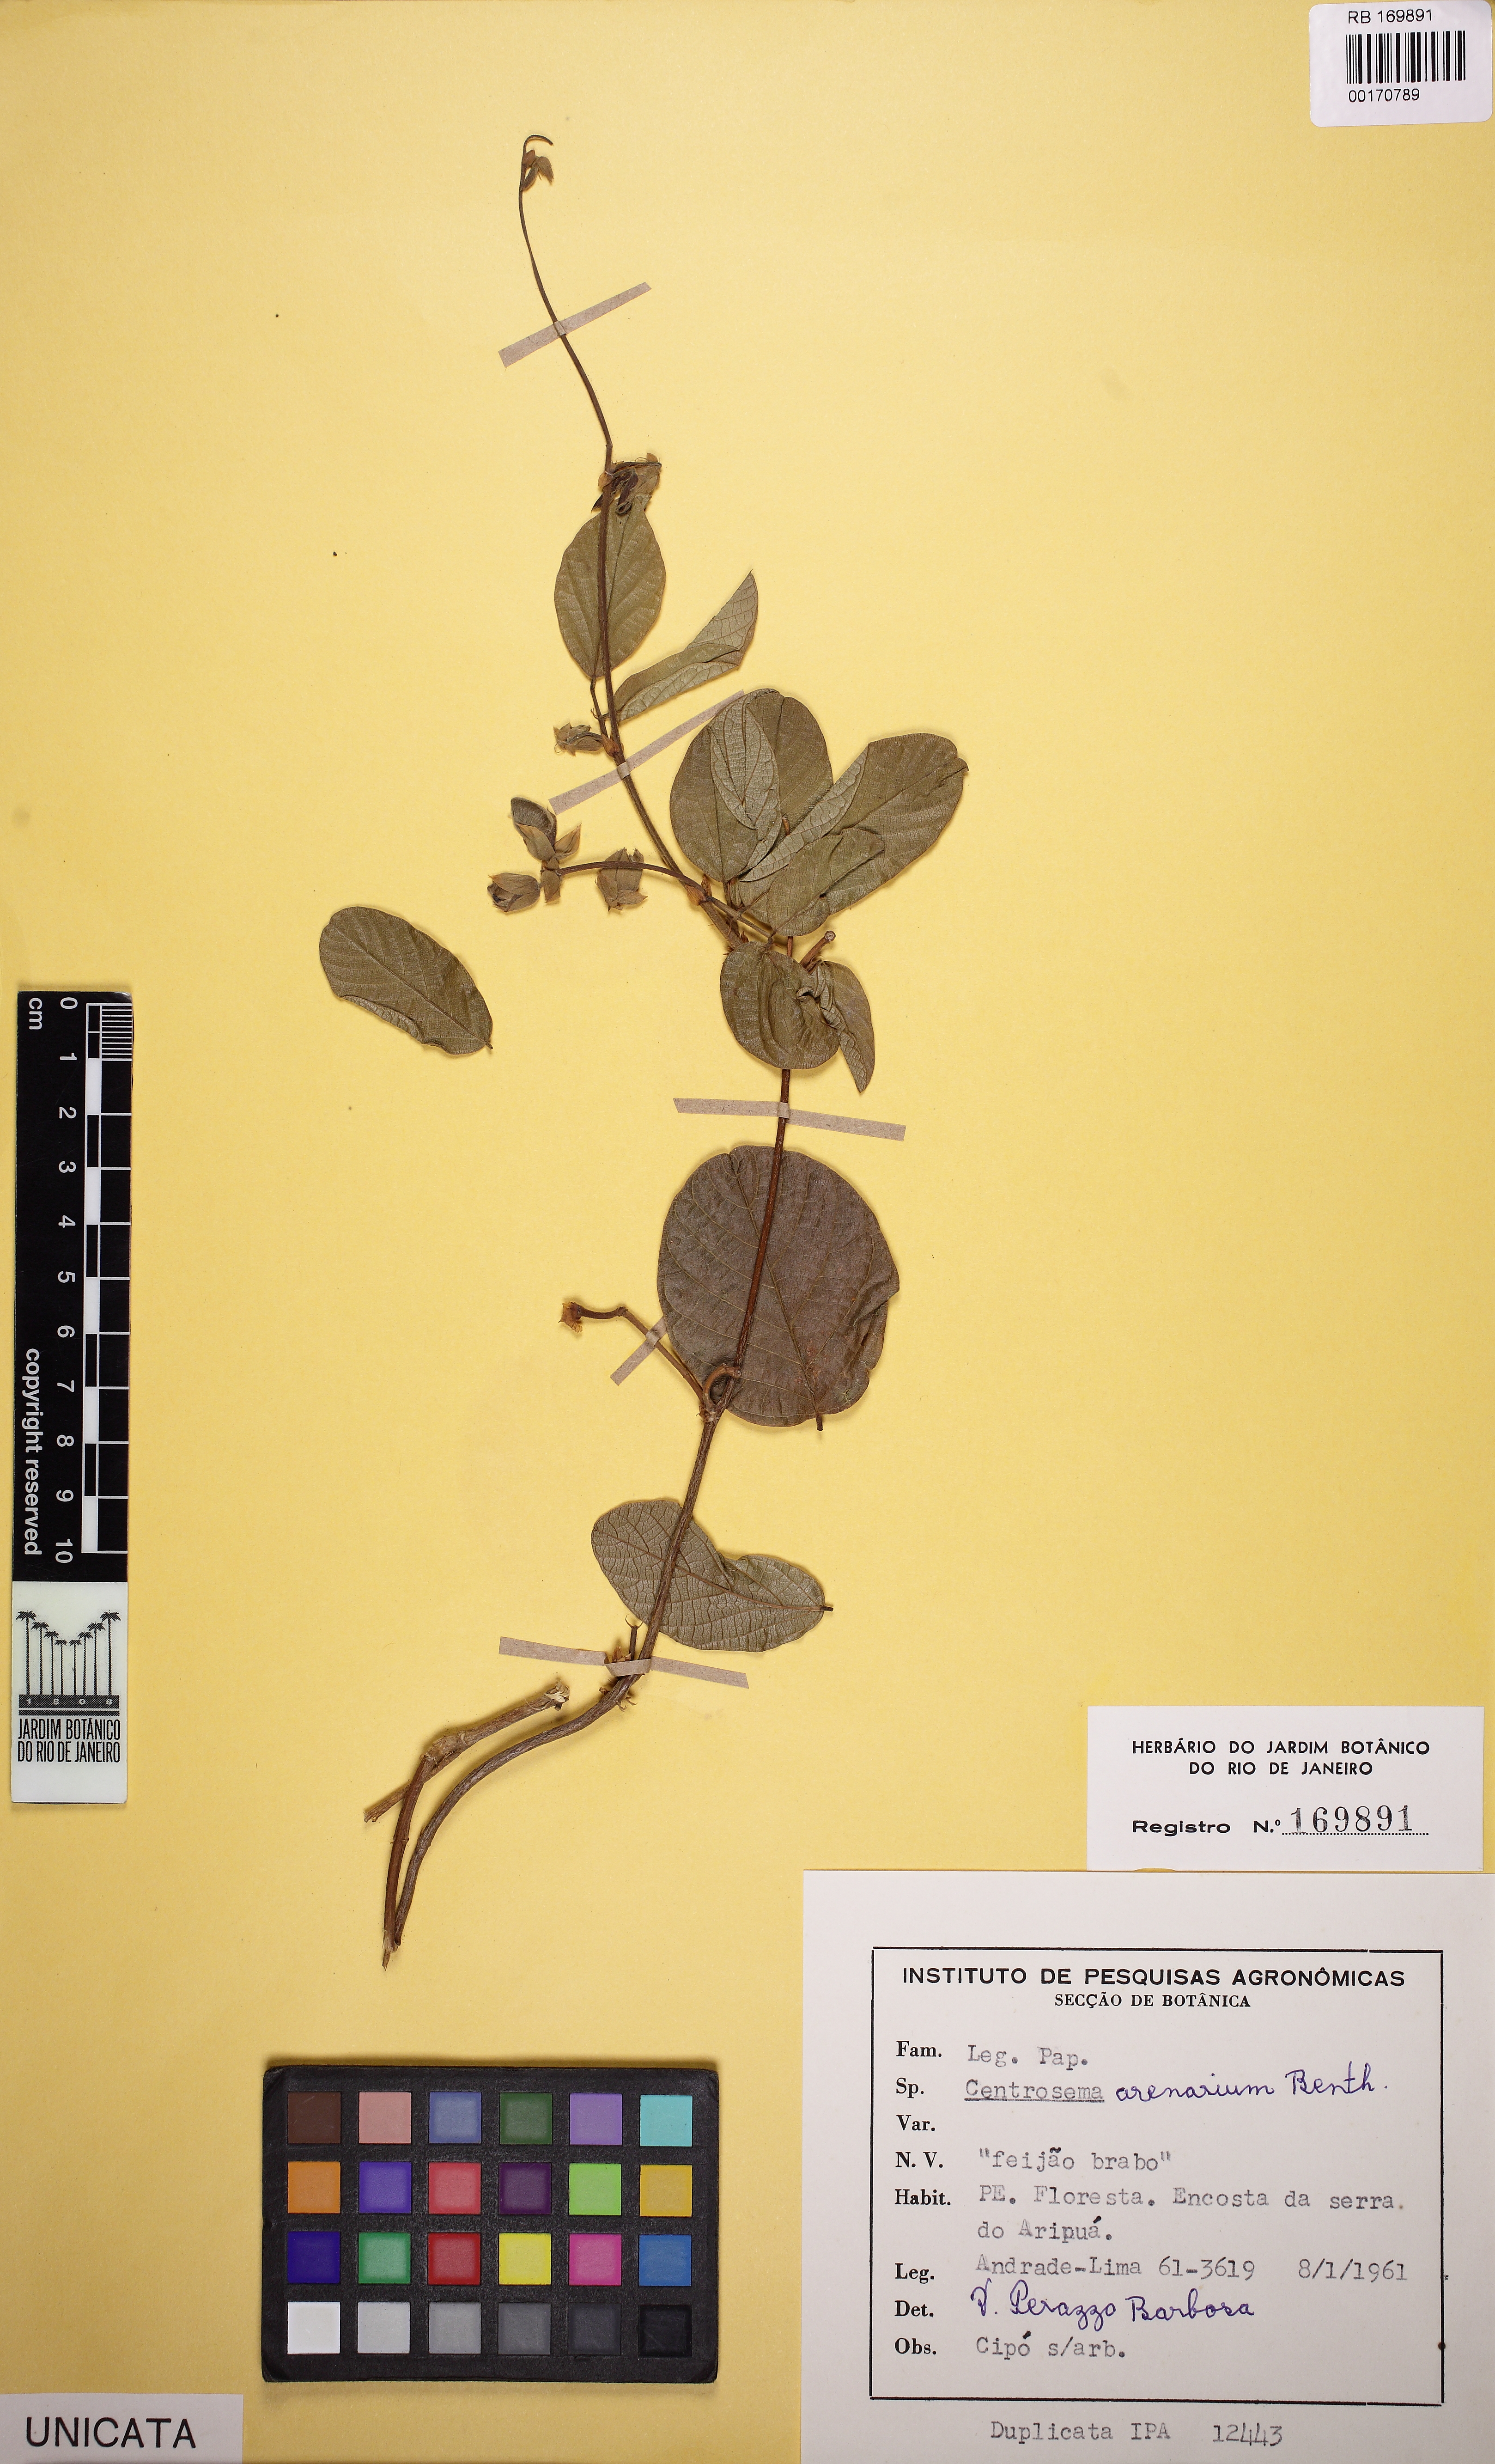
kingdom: Plantae
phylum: Tracheophyta
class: Magnoliopsida
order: Fabales
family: Fabaceae
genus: Centrosema
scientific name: Centrosema arenarium
